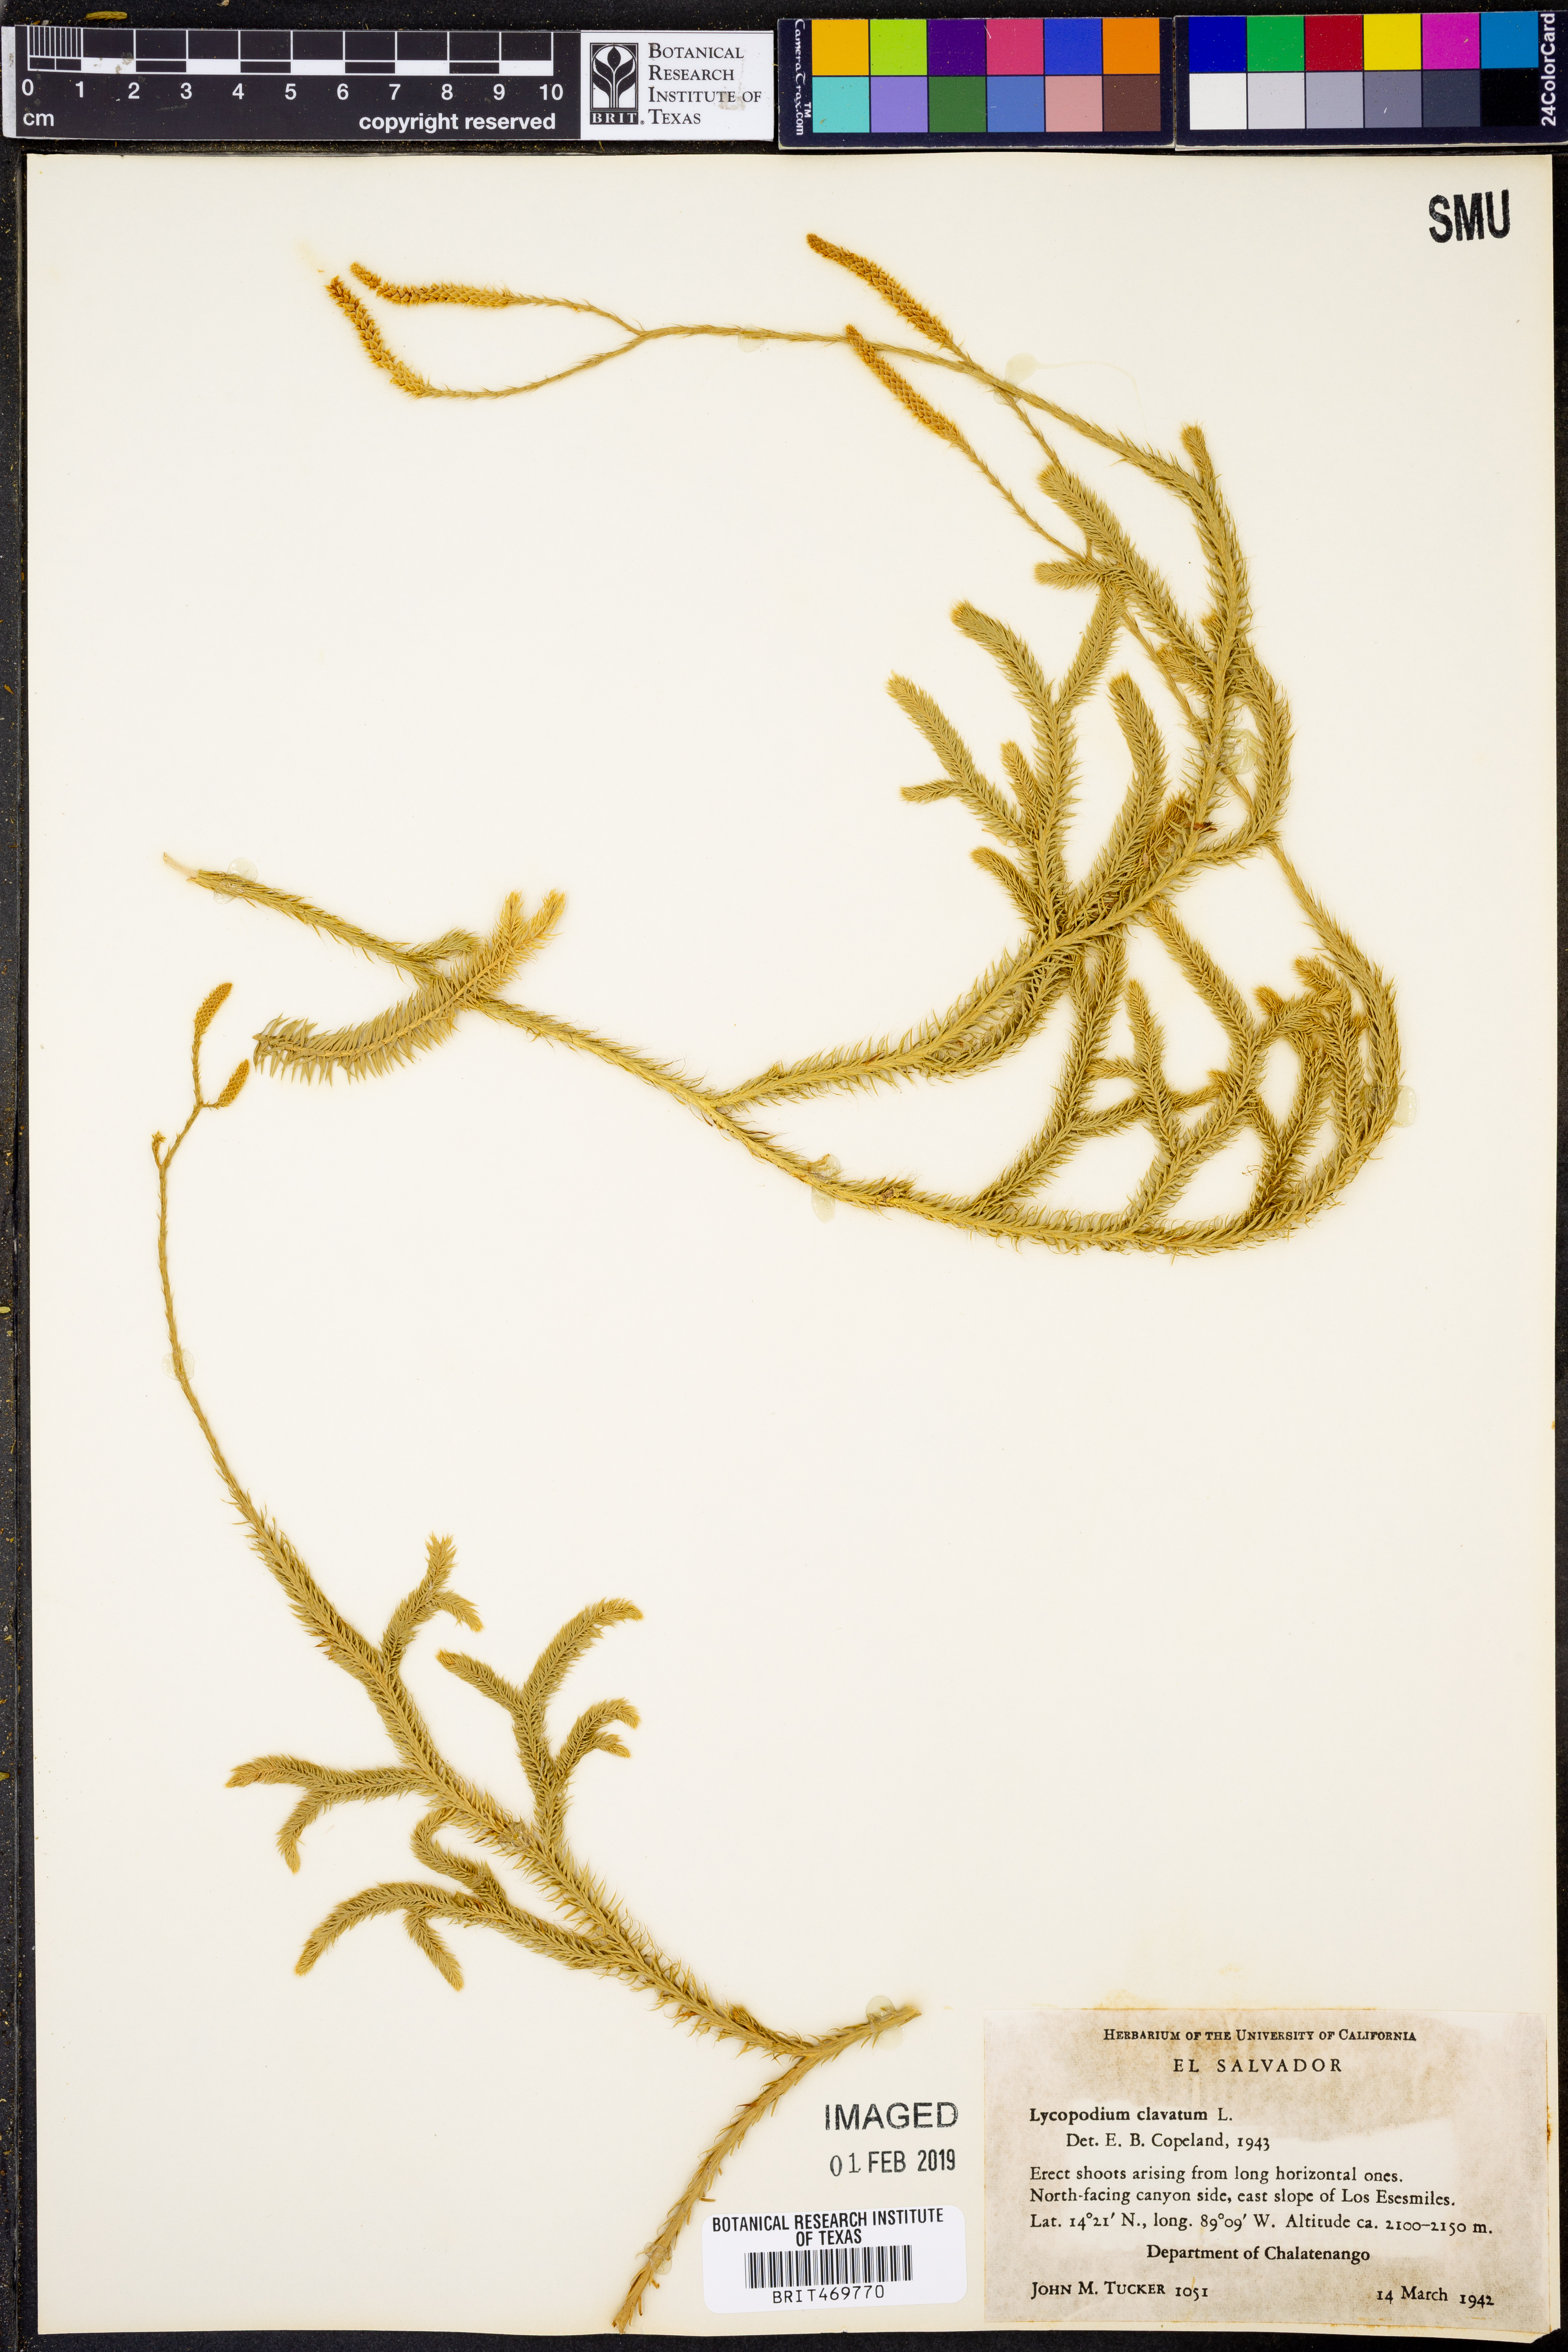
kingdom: Plantae
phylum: Tracheophyta
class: Lycopodiopsida
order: Lycopodiales
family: Lycopodiaceae
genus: Lycopodium
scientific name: Lycopodium clavatum
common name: Stag's-horn clubmoss
